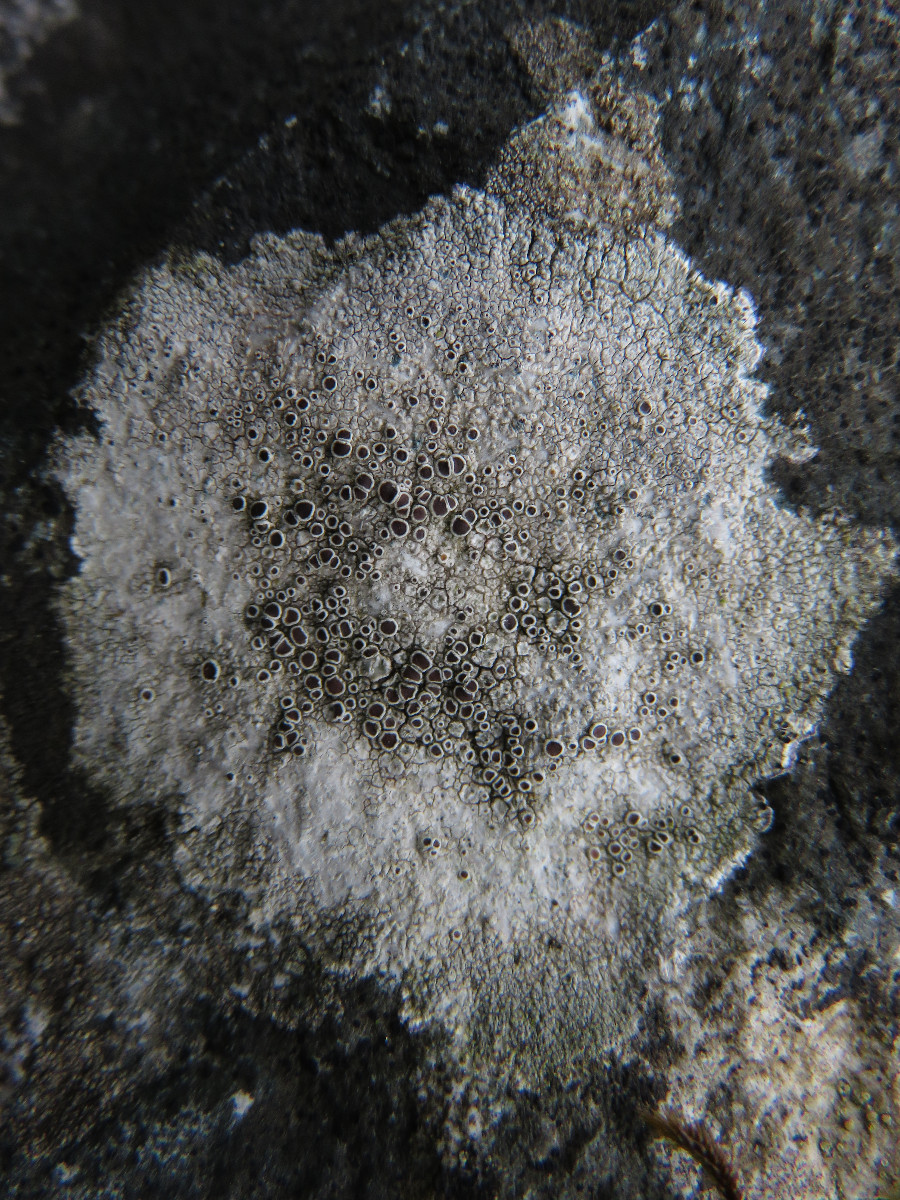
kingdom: Fungi
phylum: Ascomycota
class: Lecanoromycetes
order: Lecanorales
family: Lecanoraceae
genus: Lecanora
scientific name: Lecanora campestris
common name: mur-kantskivelav
